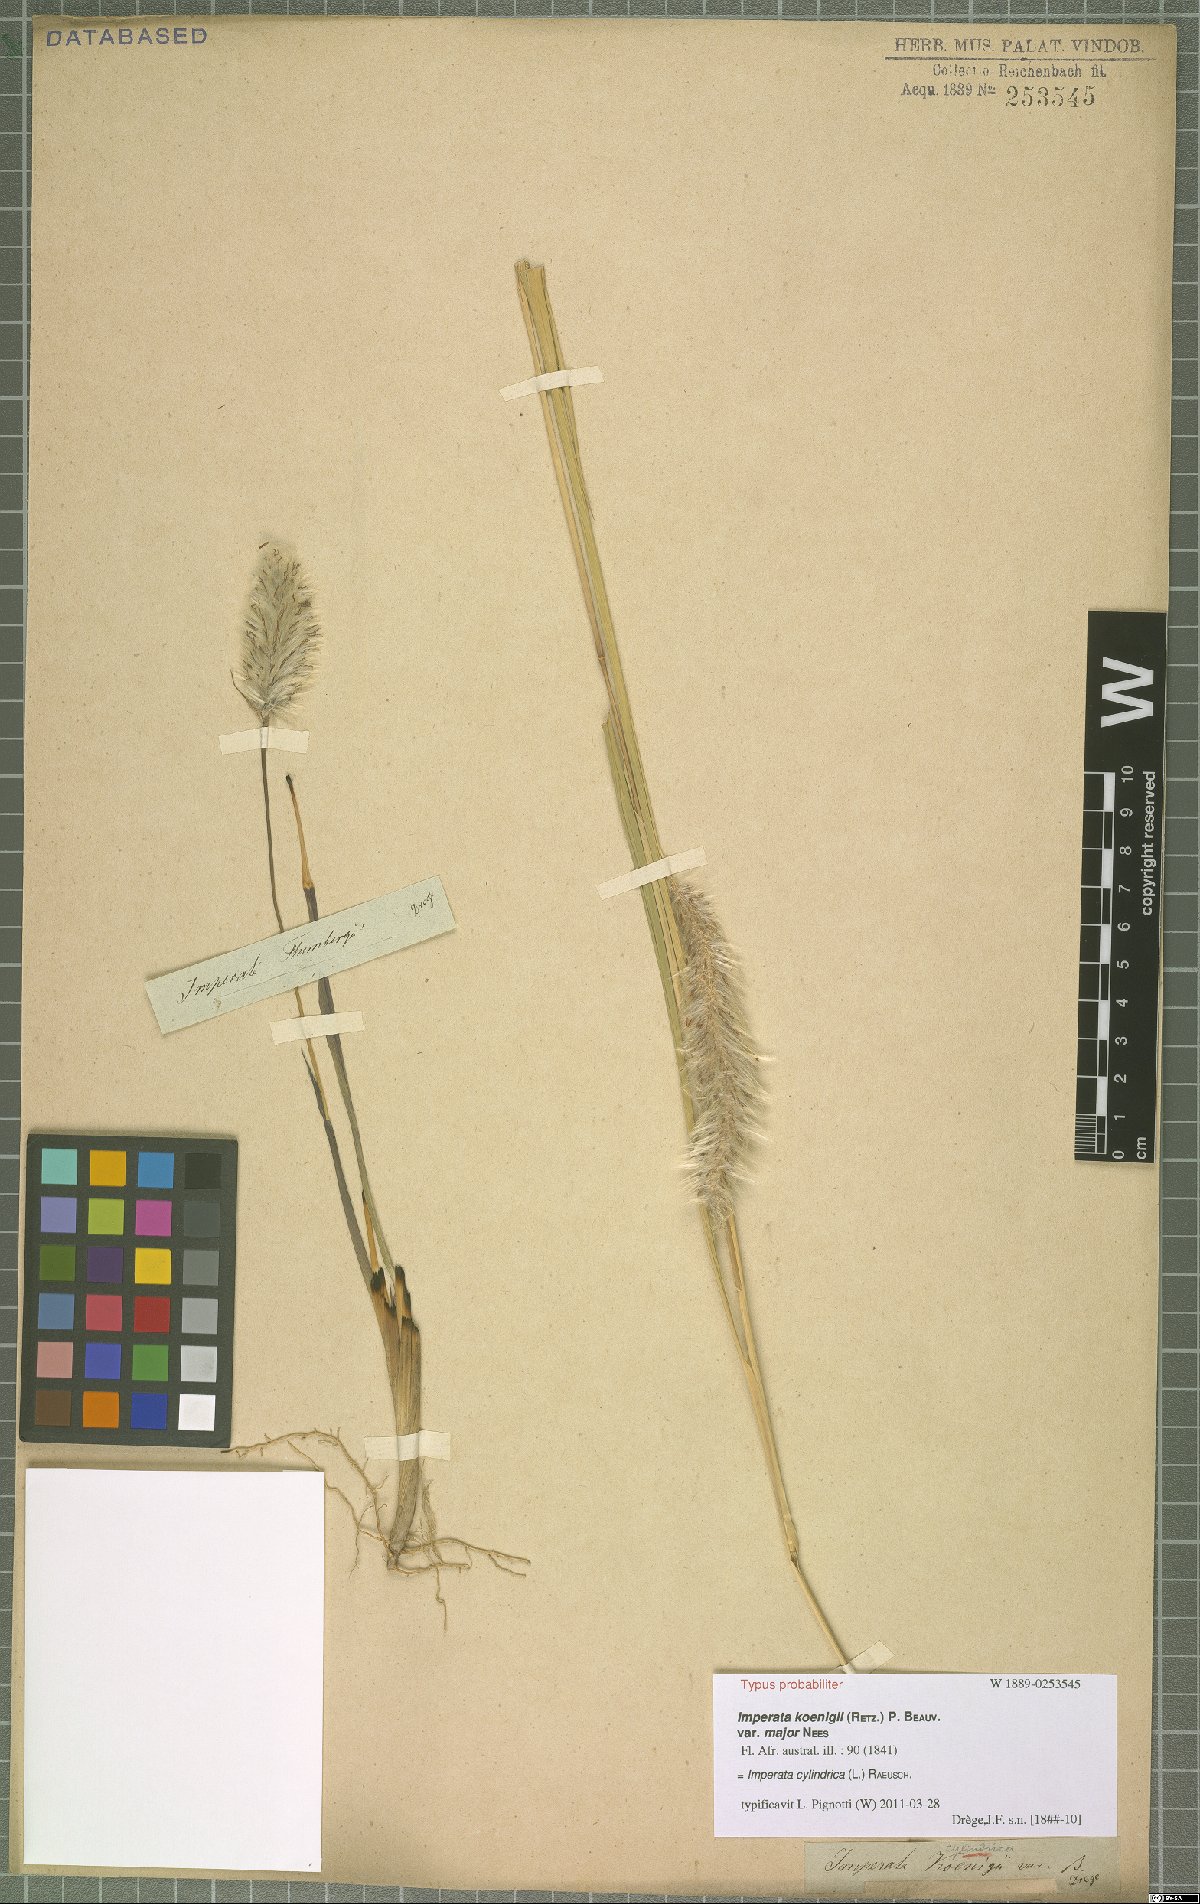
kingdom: Plantae
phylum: Tracheophyta
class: Liliopsida
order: Poales
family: Poaceae
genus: Imperata
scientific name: Imperata cylindrica
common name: Cogongrass
